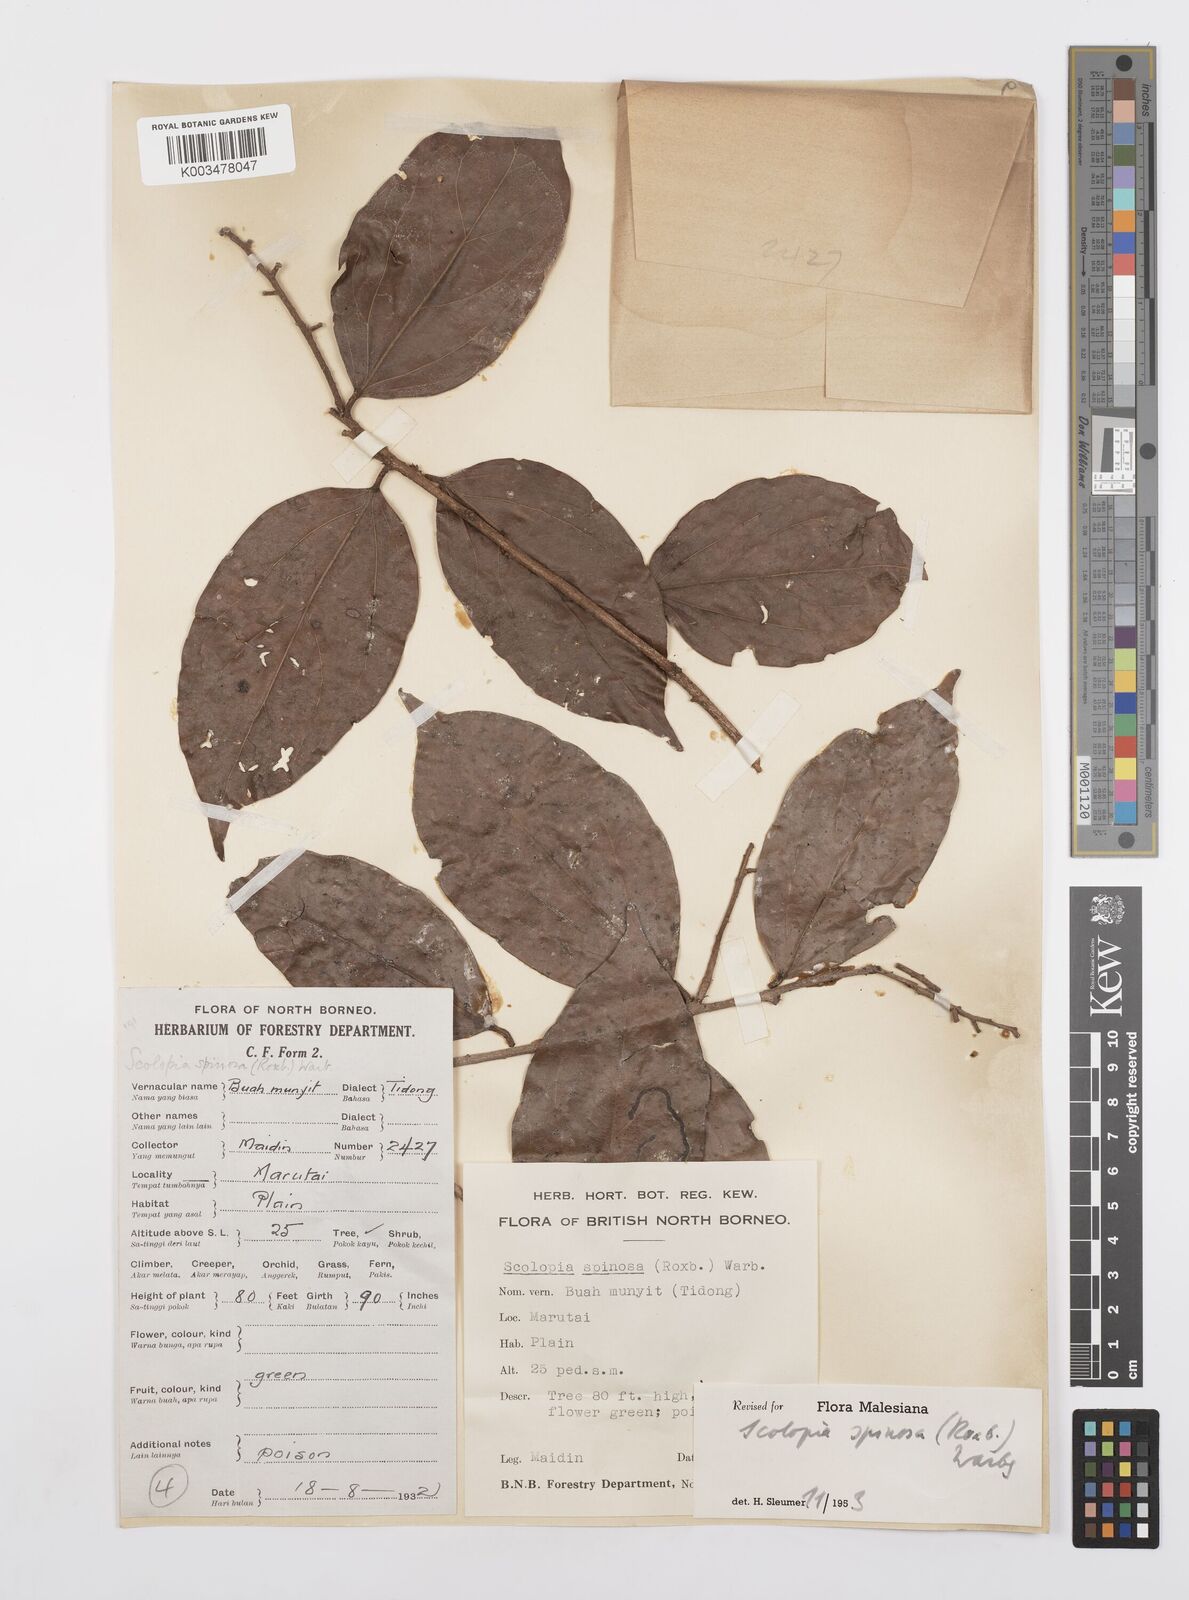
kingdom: Plantae
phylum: Tracheophyta
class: Magnoliopsida
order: Malpighiales
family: Salicaceae
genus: Scolopia
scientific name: Scolopia spinosa
